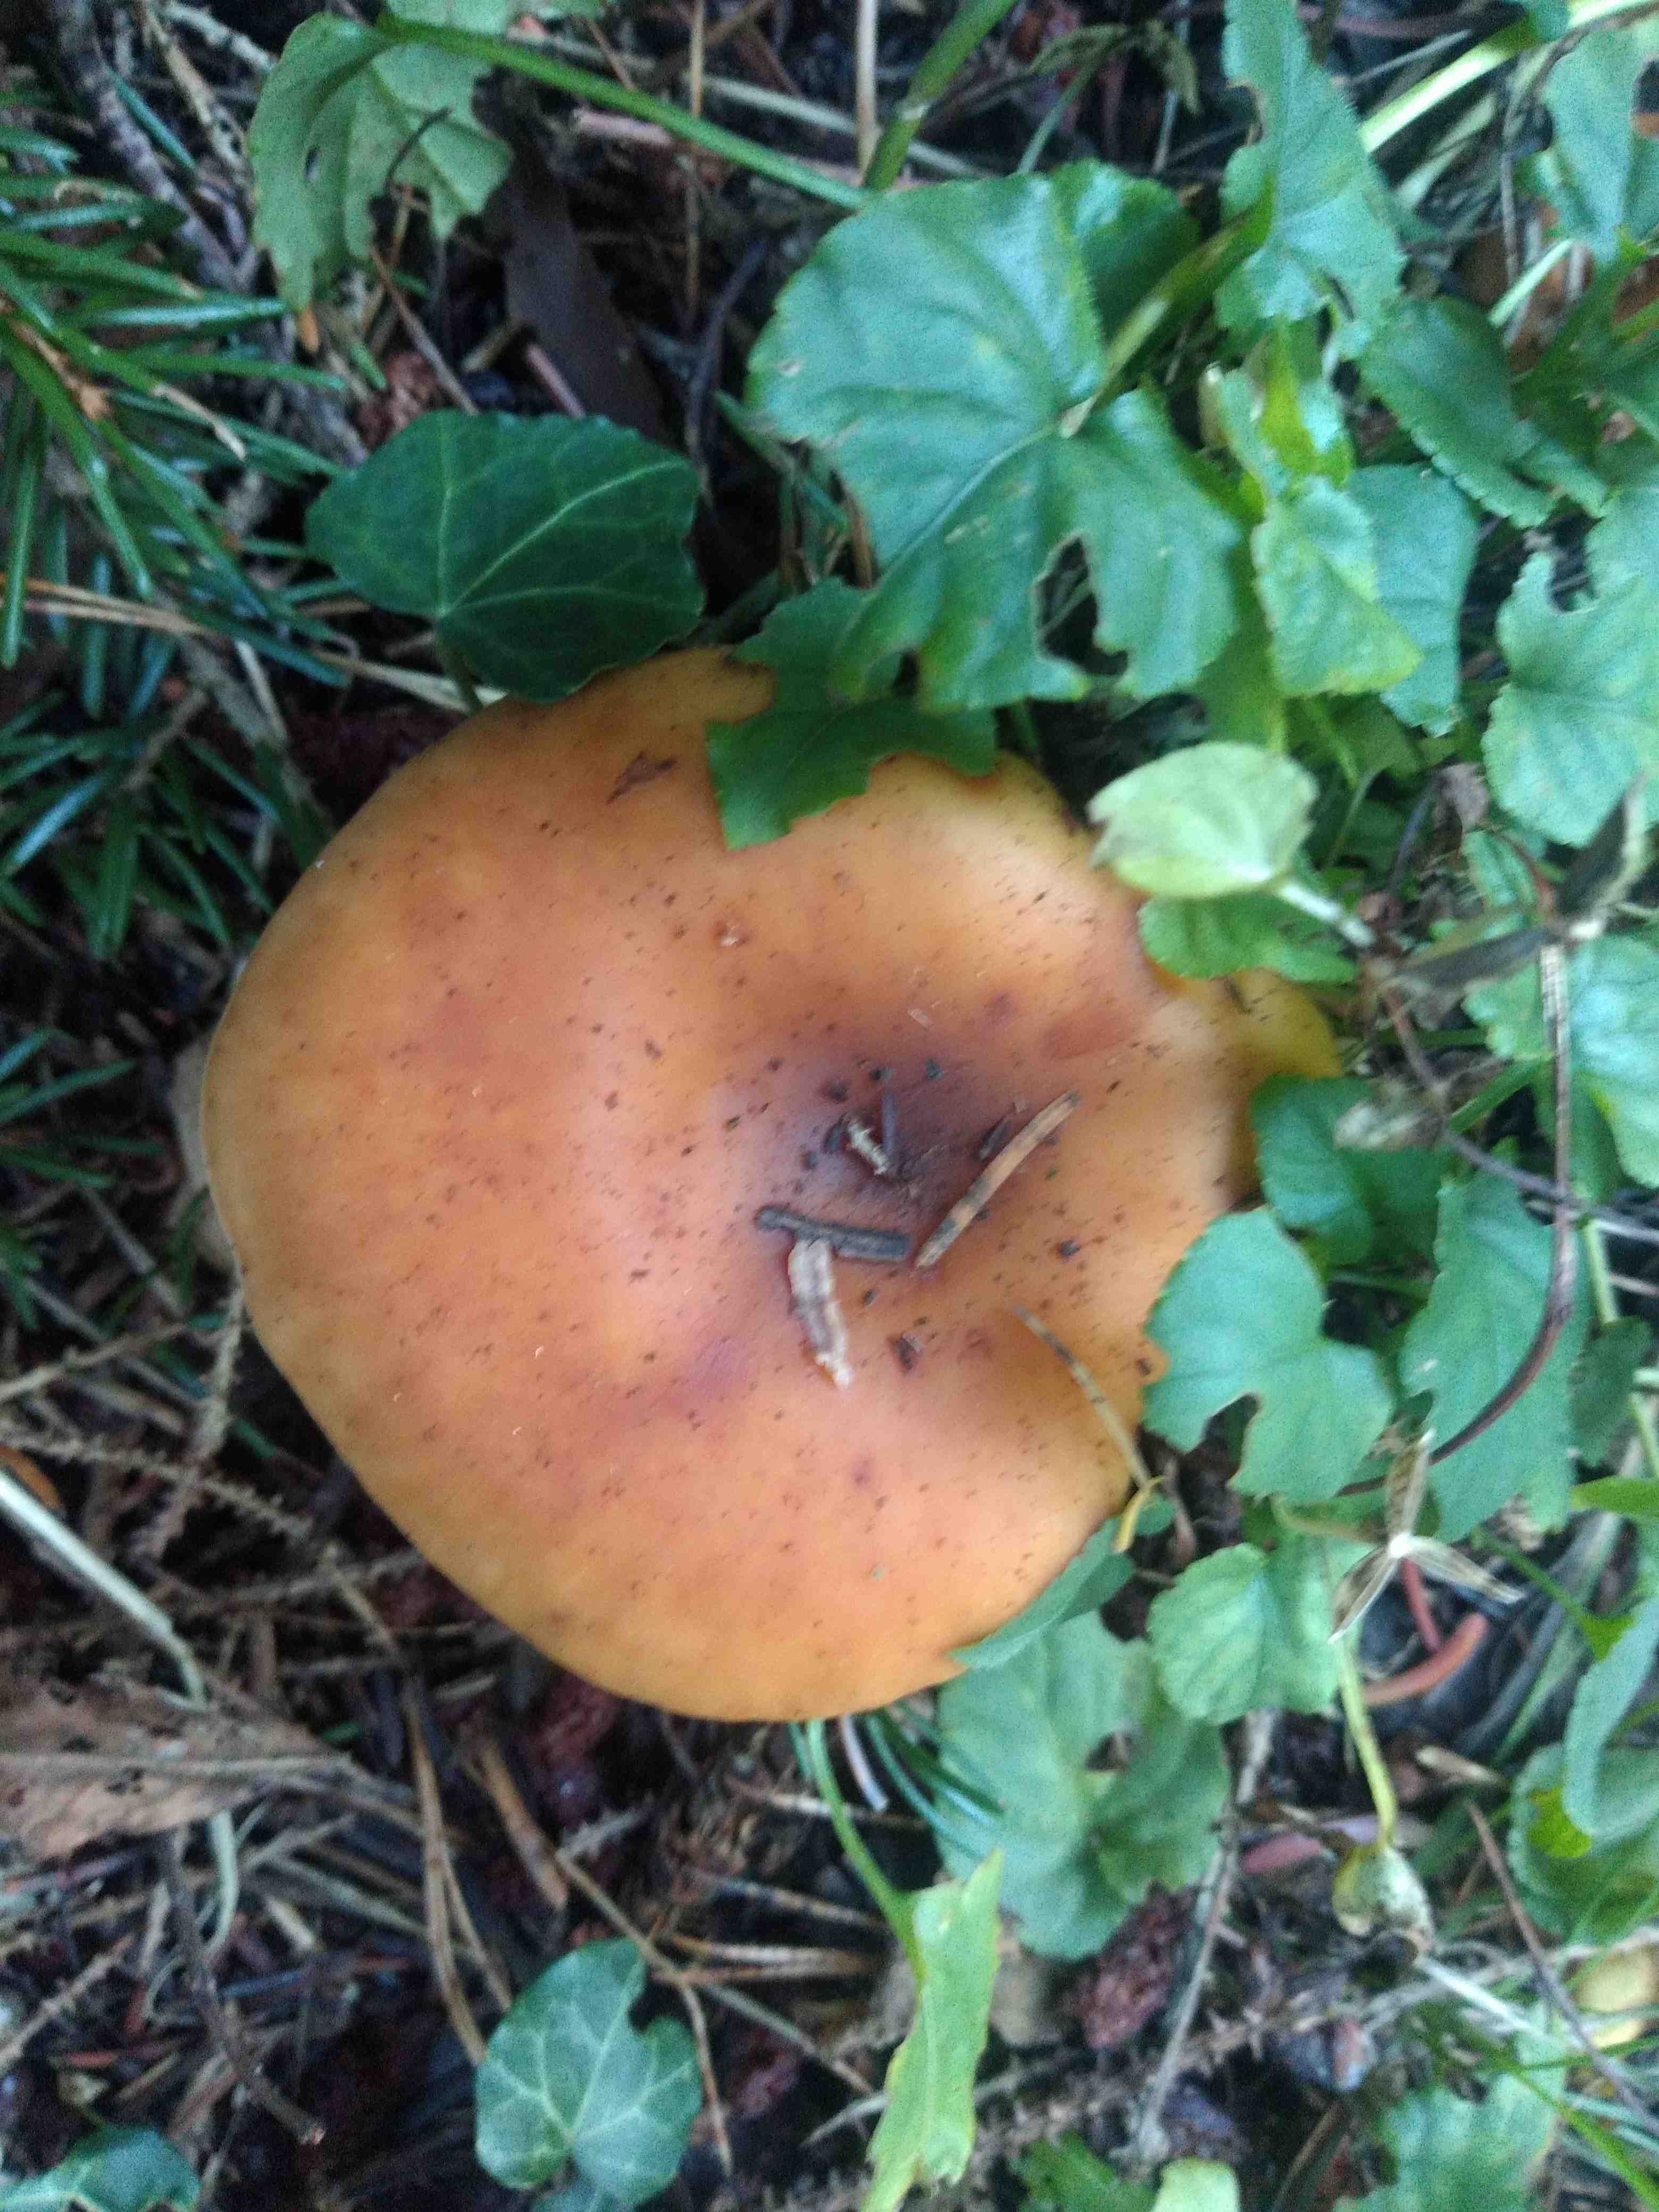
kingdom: Fungi
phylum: Basidiomycota
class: Agaricomycetes
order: Agaricales
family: Tricholomataceae
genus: Paralepista
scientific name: Paralepista flaccida
